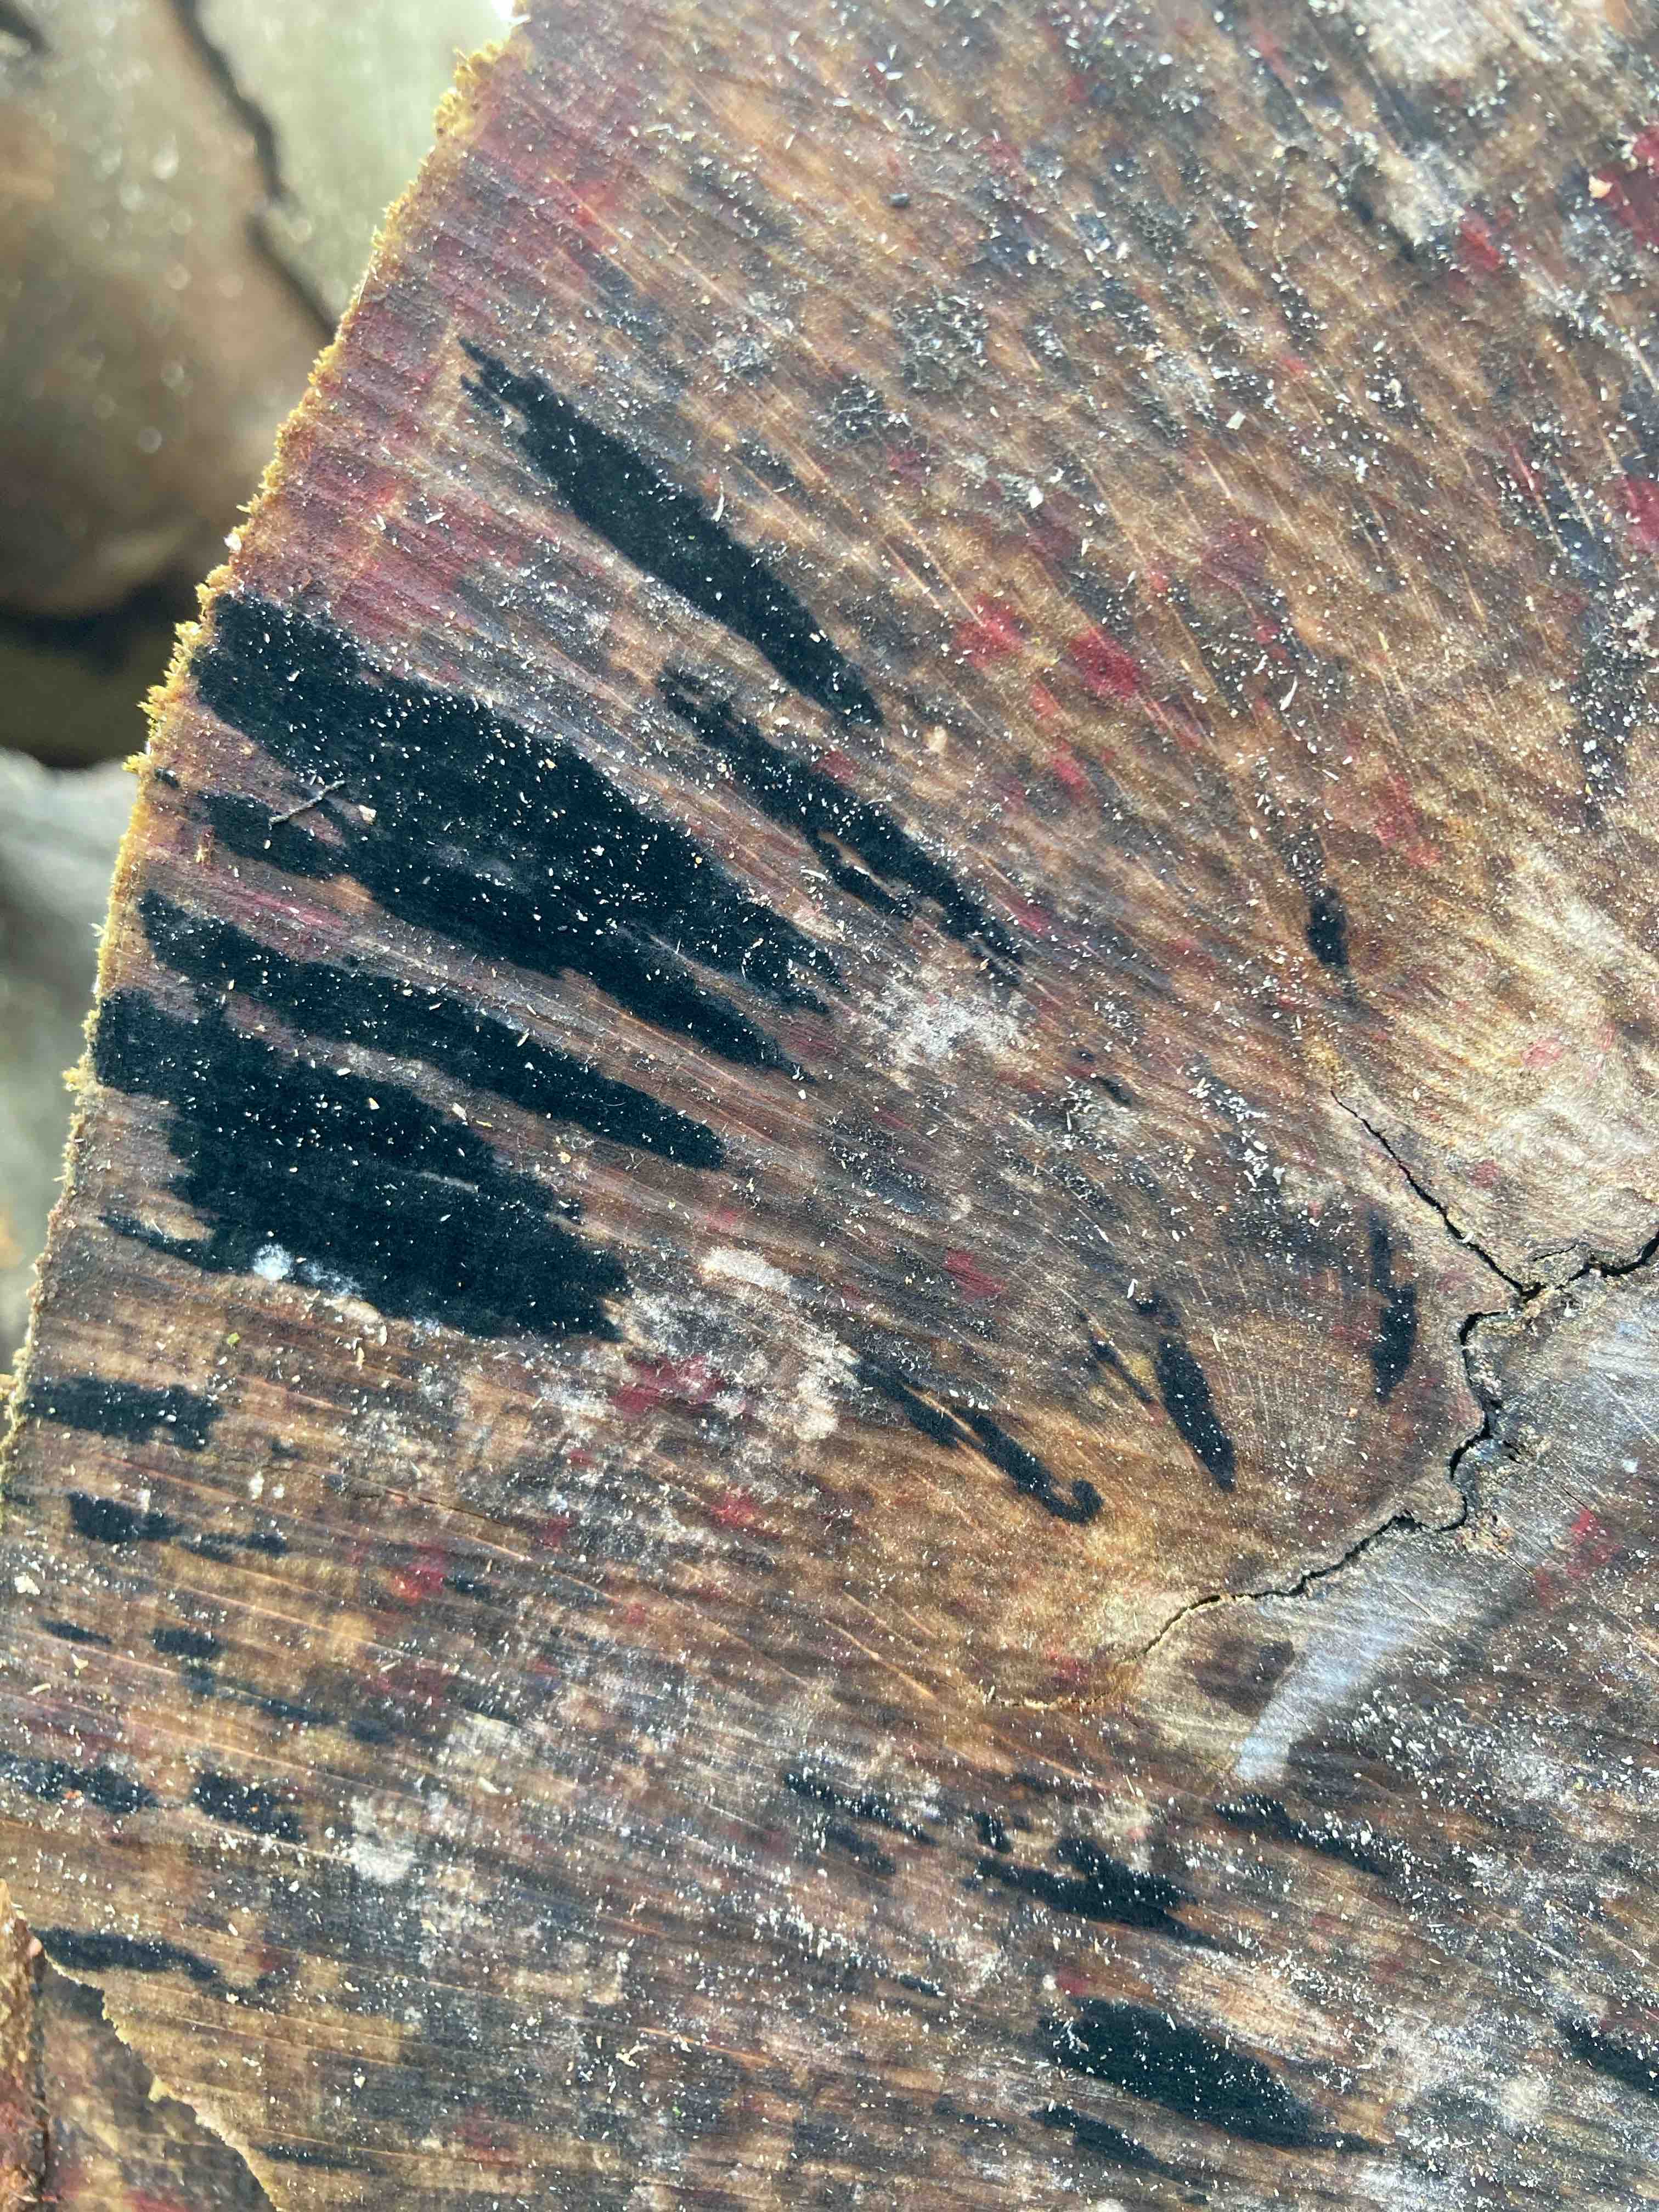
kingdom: Fungi
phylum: Ascomycota
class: Leotiomycetes
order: Helotiales
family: Helotiaceae
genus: Bispora
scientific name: Bispora pallescens
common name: måtte-snitskive
